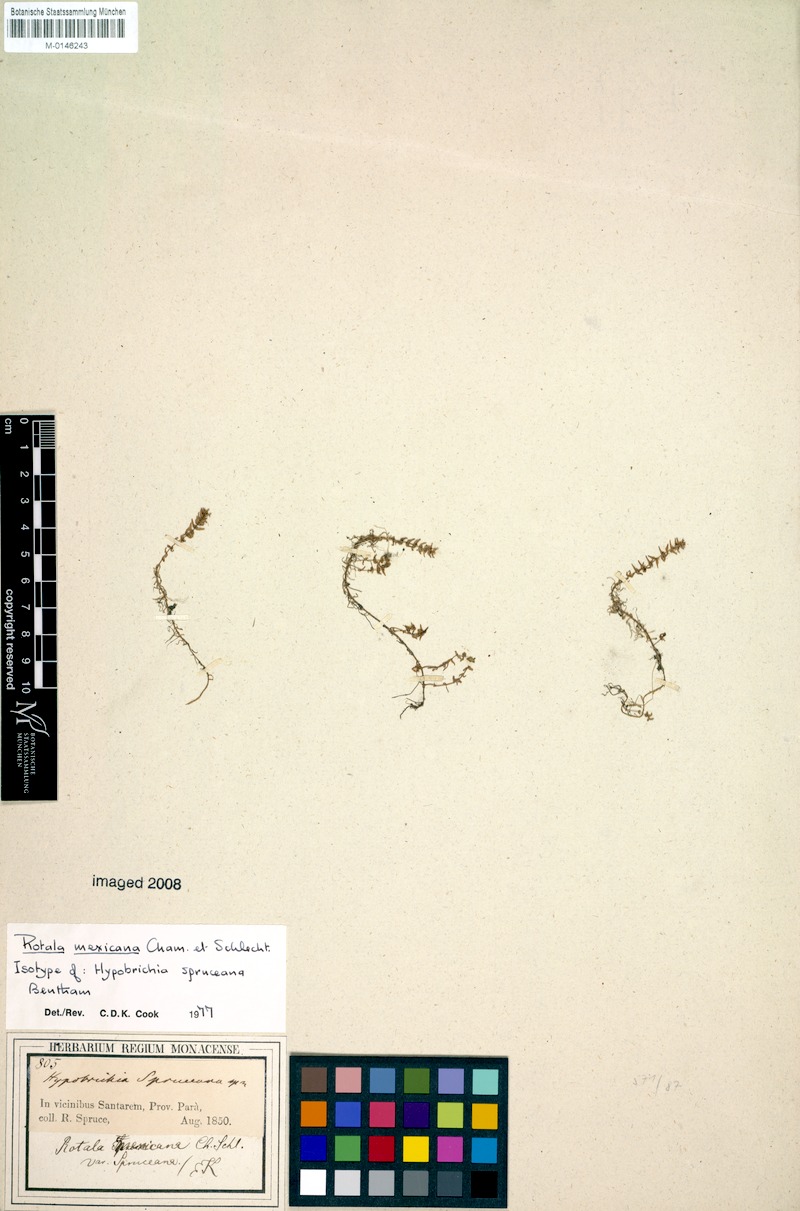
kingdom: Plantae
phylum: Tracheophyta
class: Magnoliopsida
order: Myrtales
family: Lythraceae
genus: Rotala
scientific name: Rotala mexicana
